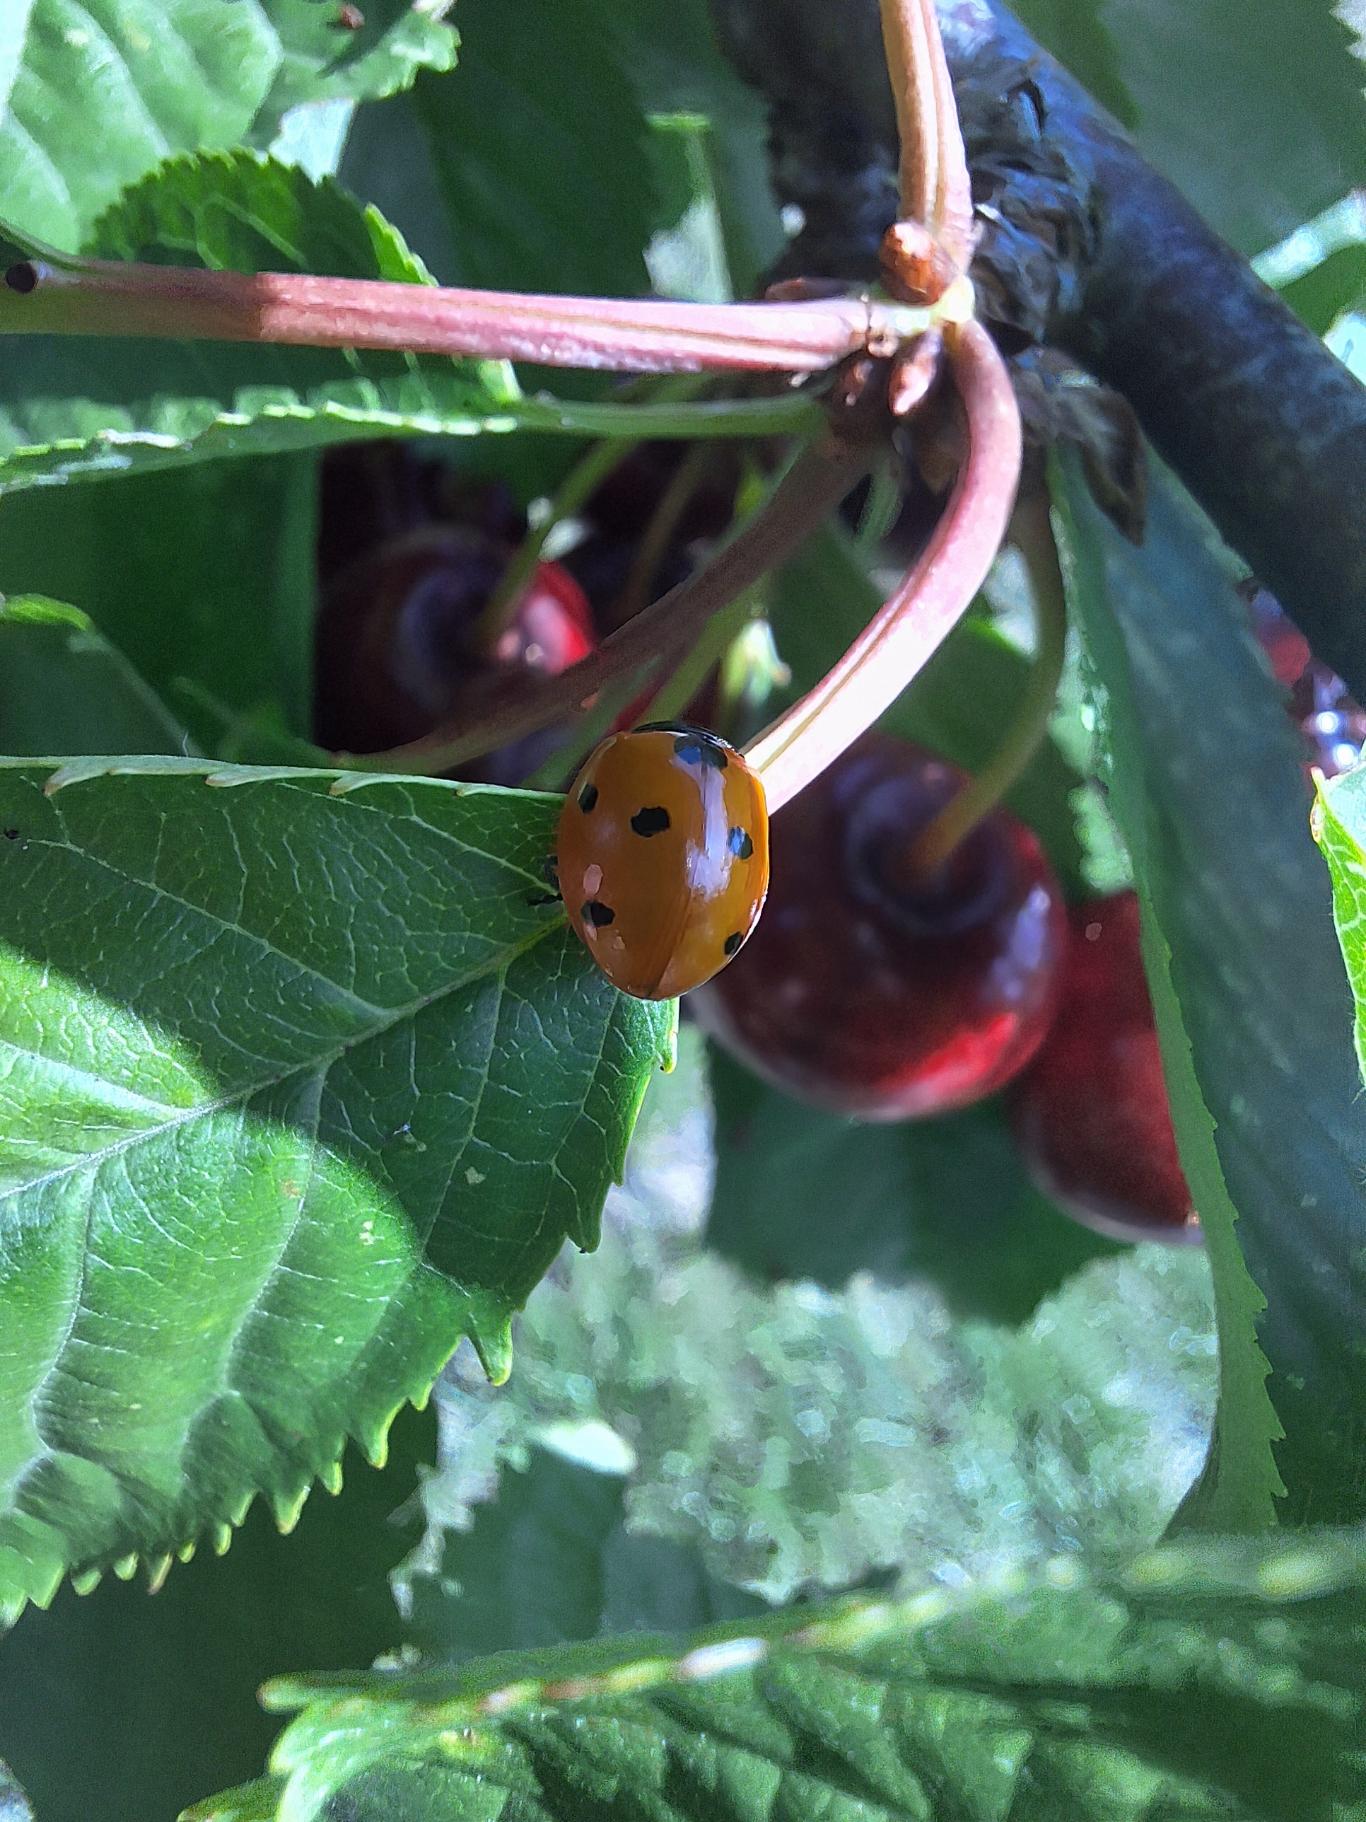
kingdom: Animalia
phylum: Arthropoda
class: Insecta
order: Coleoptera
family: Coccinellidae
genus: Coccinella
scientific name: Coccinella septempunctata
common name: Syvplettet mariehøne
